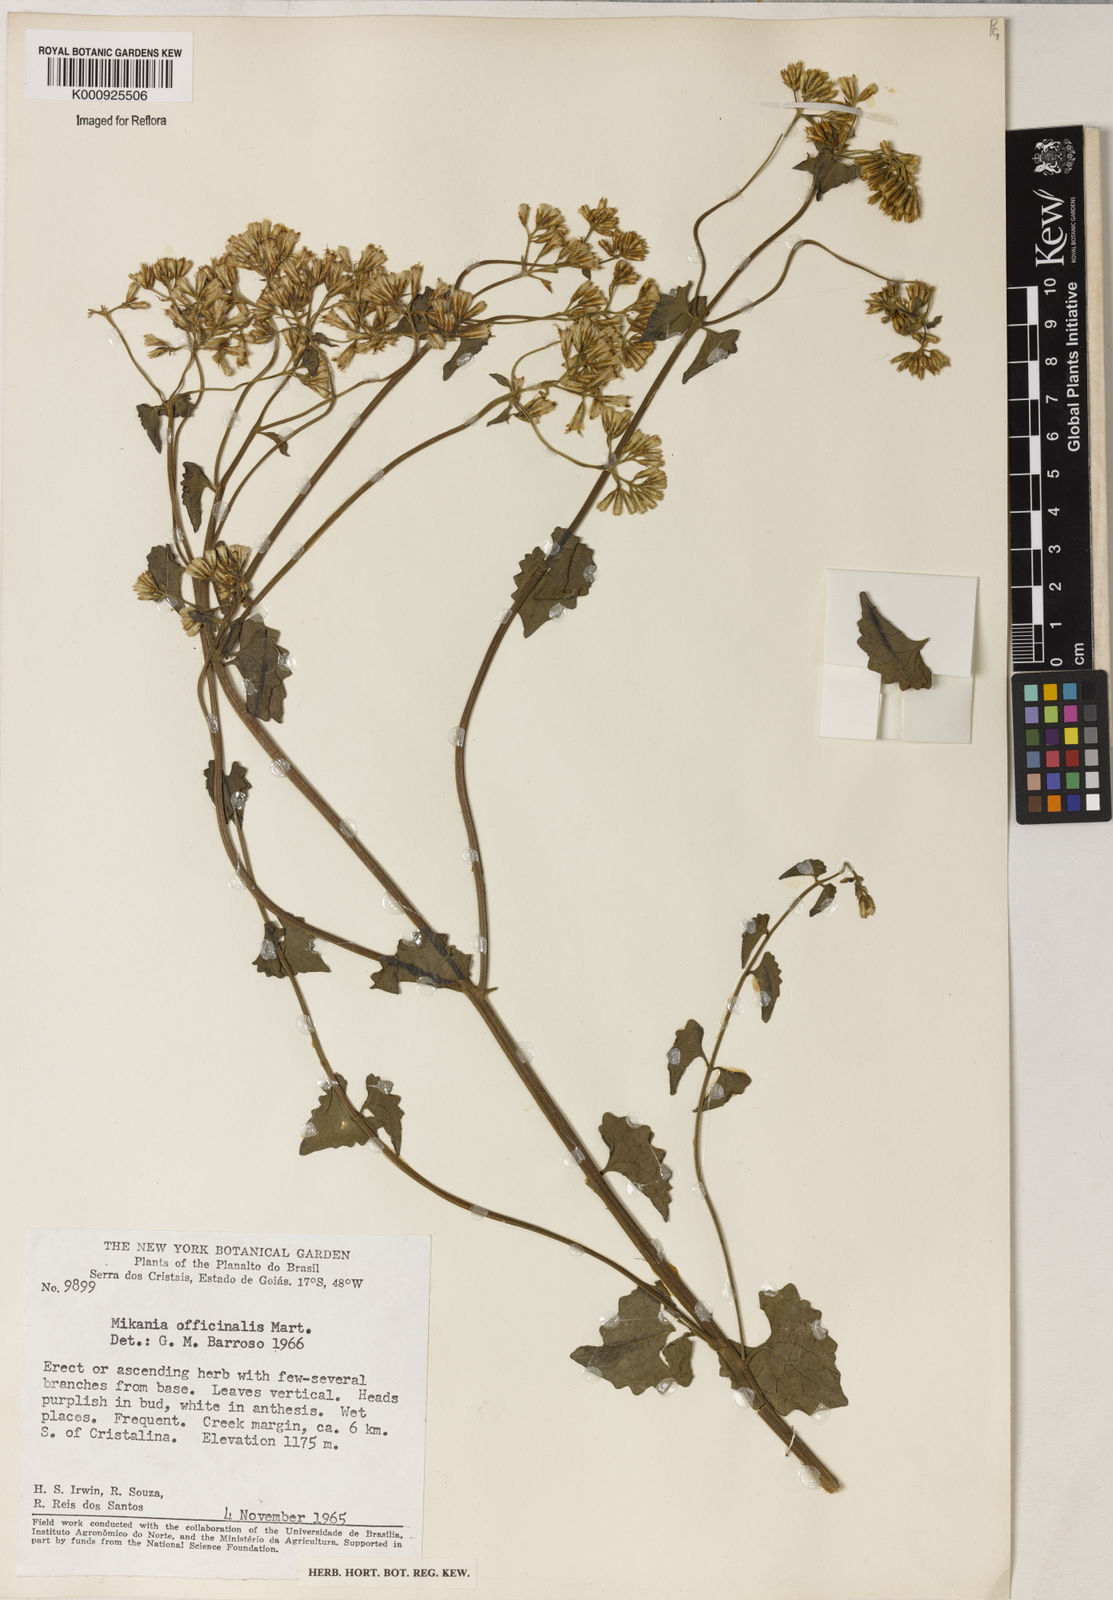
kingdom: Plantae
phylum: Tracheophyta
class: Magnoliopsida
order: Asterales
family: Asteraceae
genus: Mikania
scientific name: Mikania officinalis
